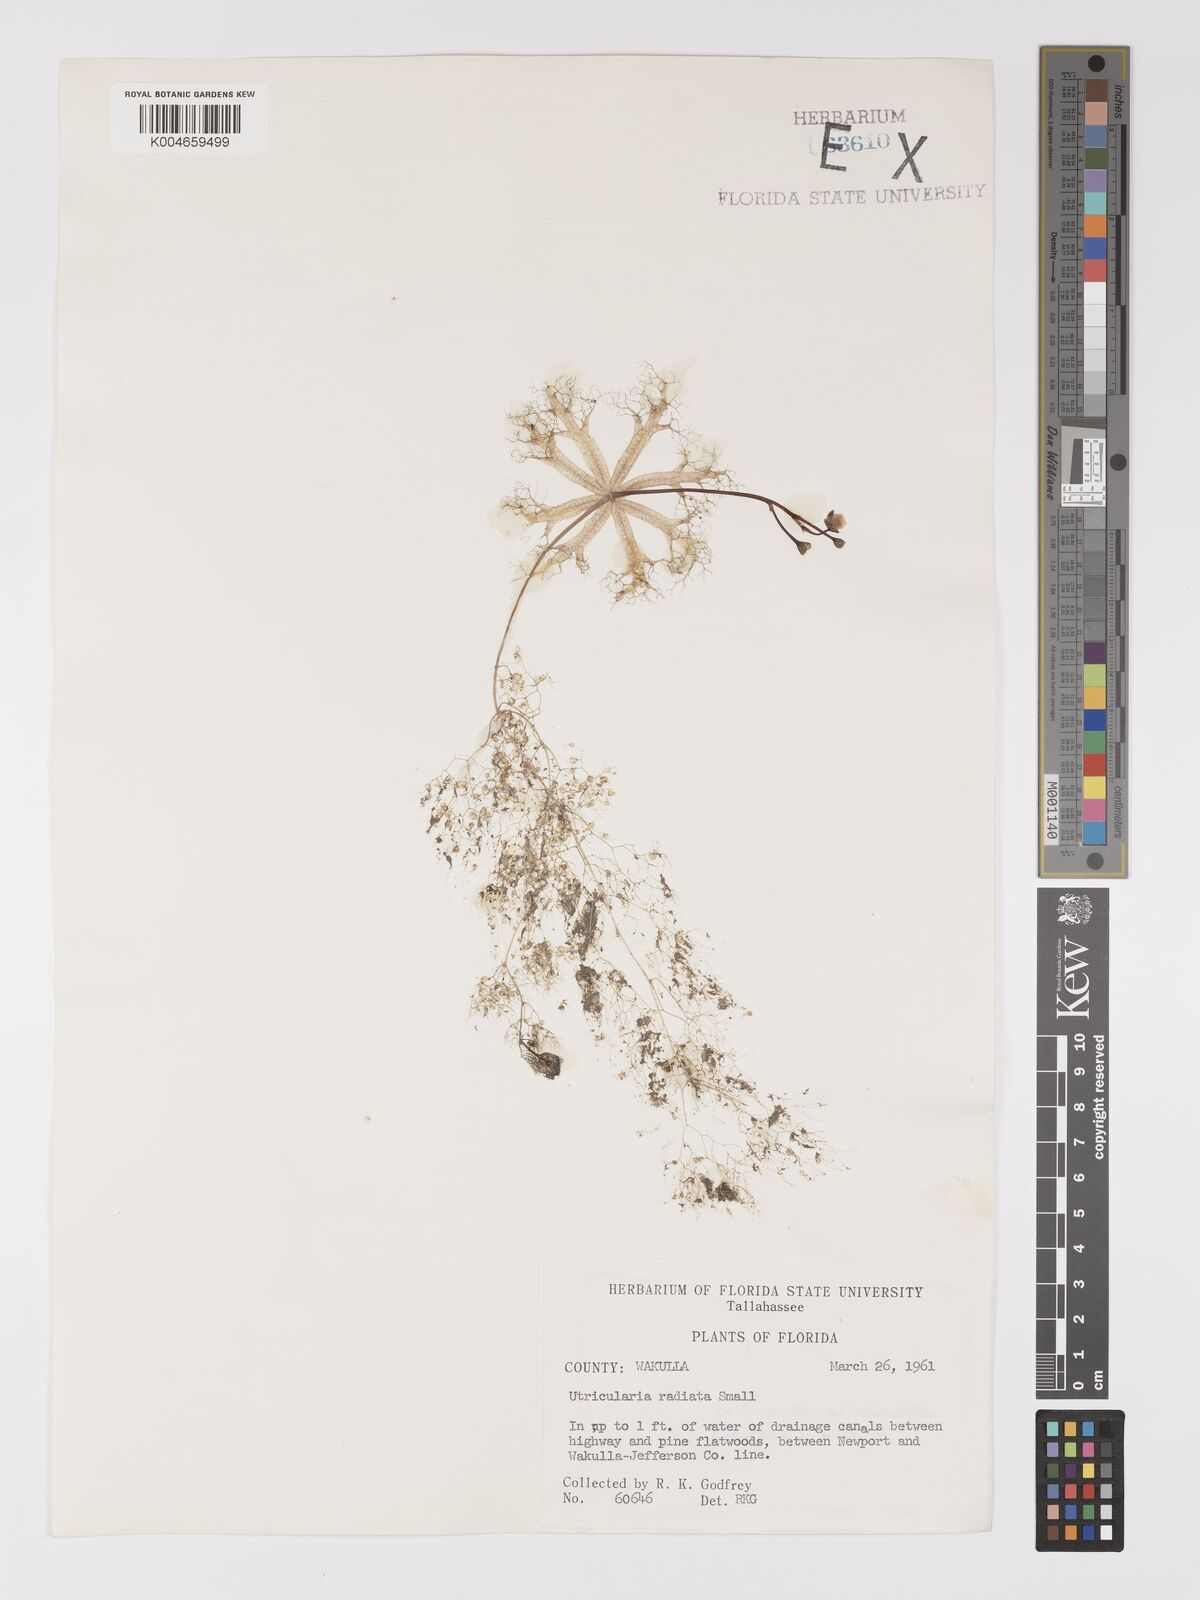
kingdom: Plantae
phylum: Tracheophyta
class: Magnoliopsida
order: Lamiales
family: Lentibulariaceae
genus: Utricularia
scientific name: Utricularia radiata
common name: Floating bladderwort
